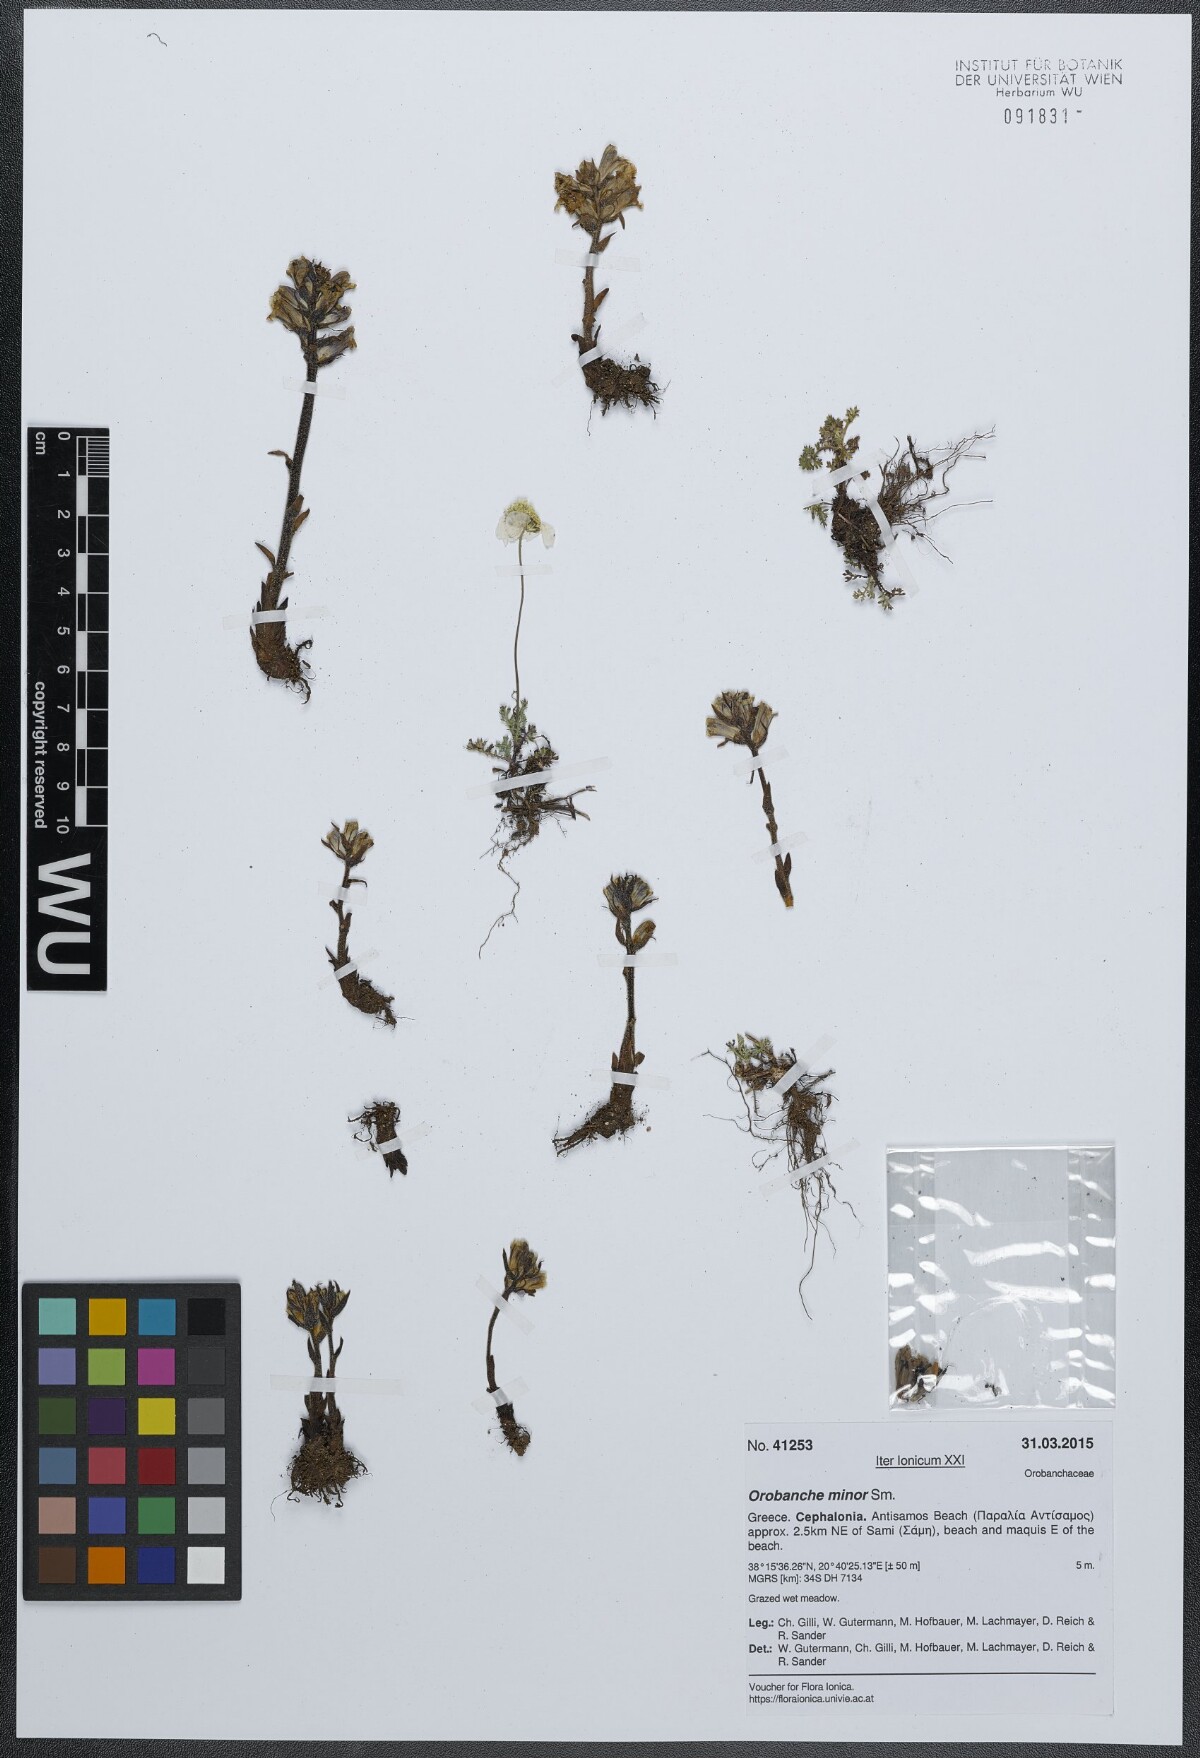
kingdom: Plantae
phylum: Tracheophyta
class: Magnoliopsida
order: Lamiales
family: Orobanchaceae
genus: Orobanche
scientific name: Orobanche minor
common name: Common broomrape
